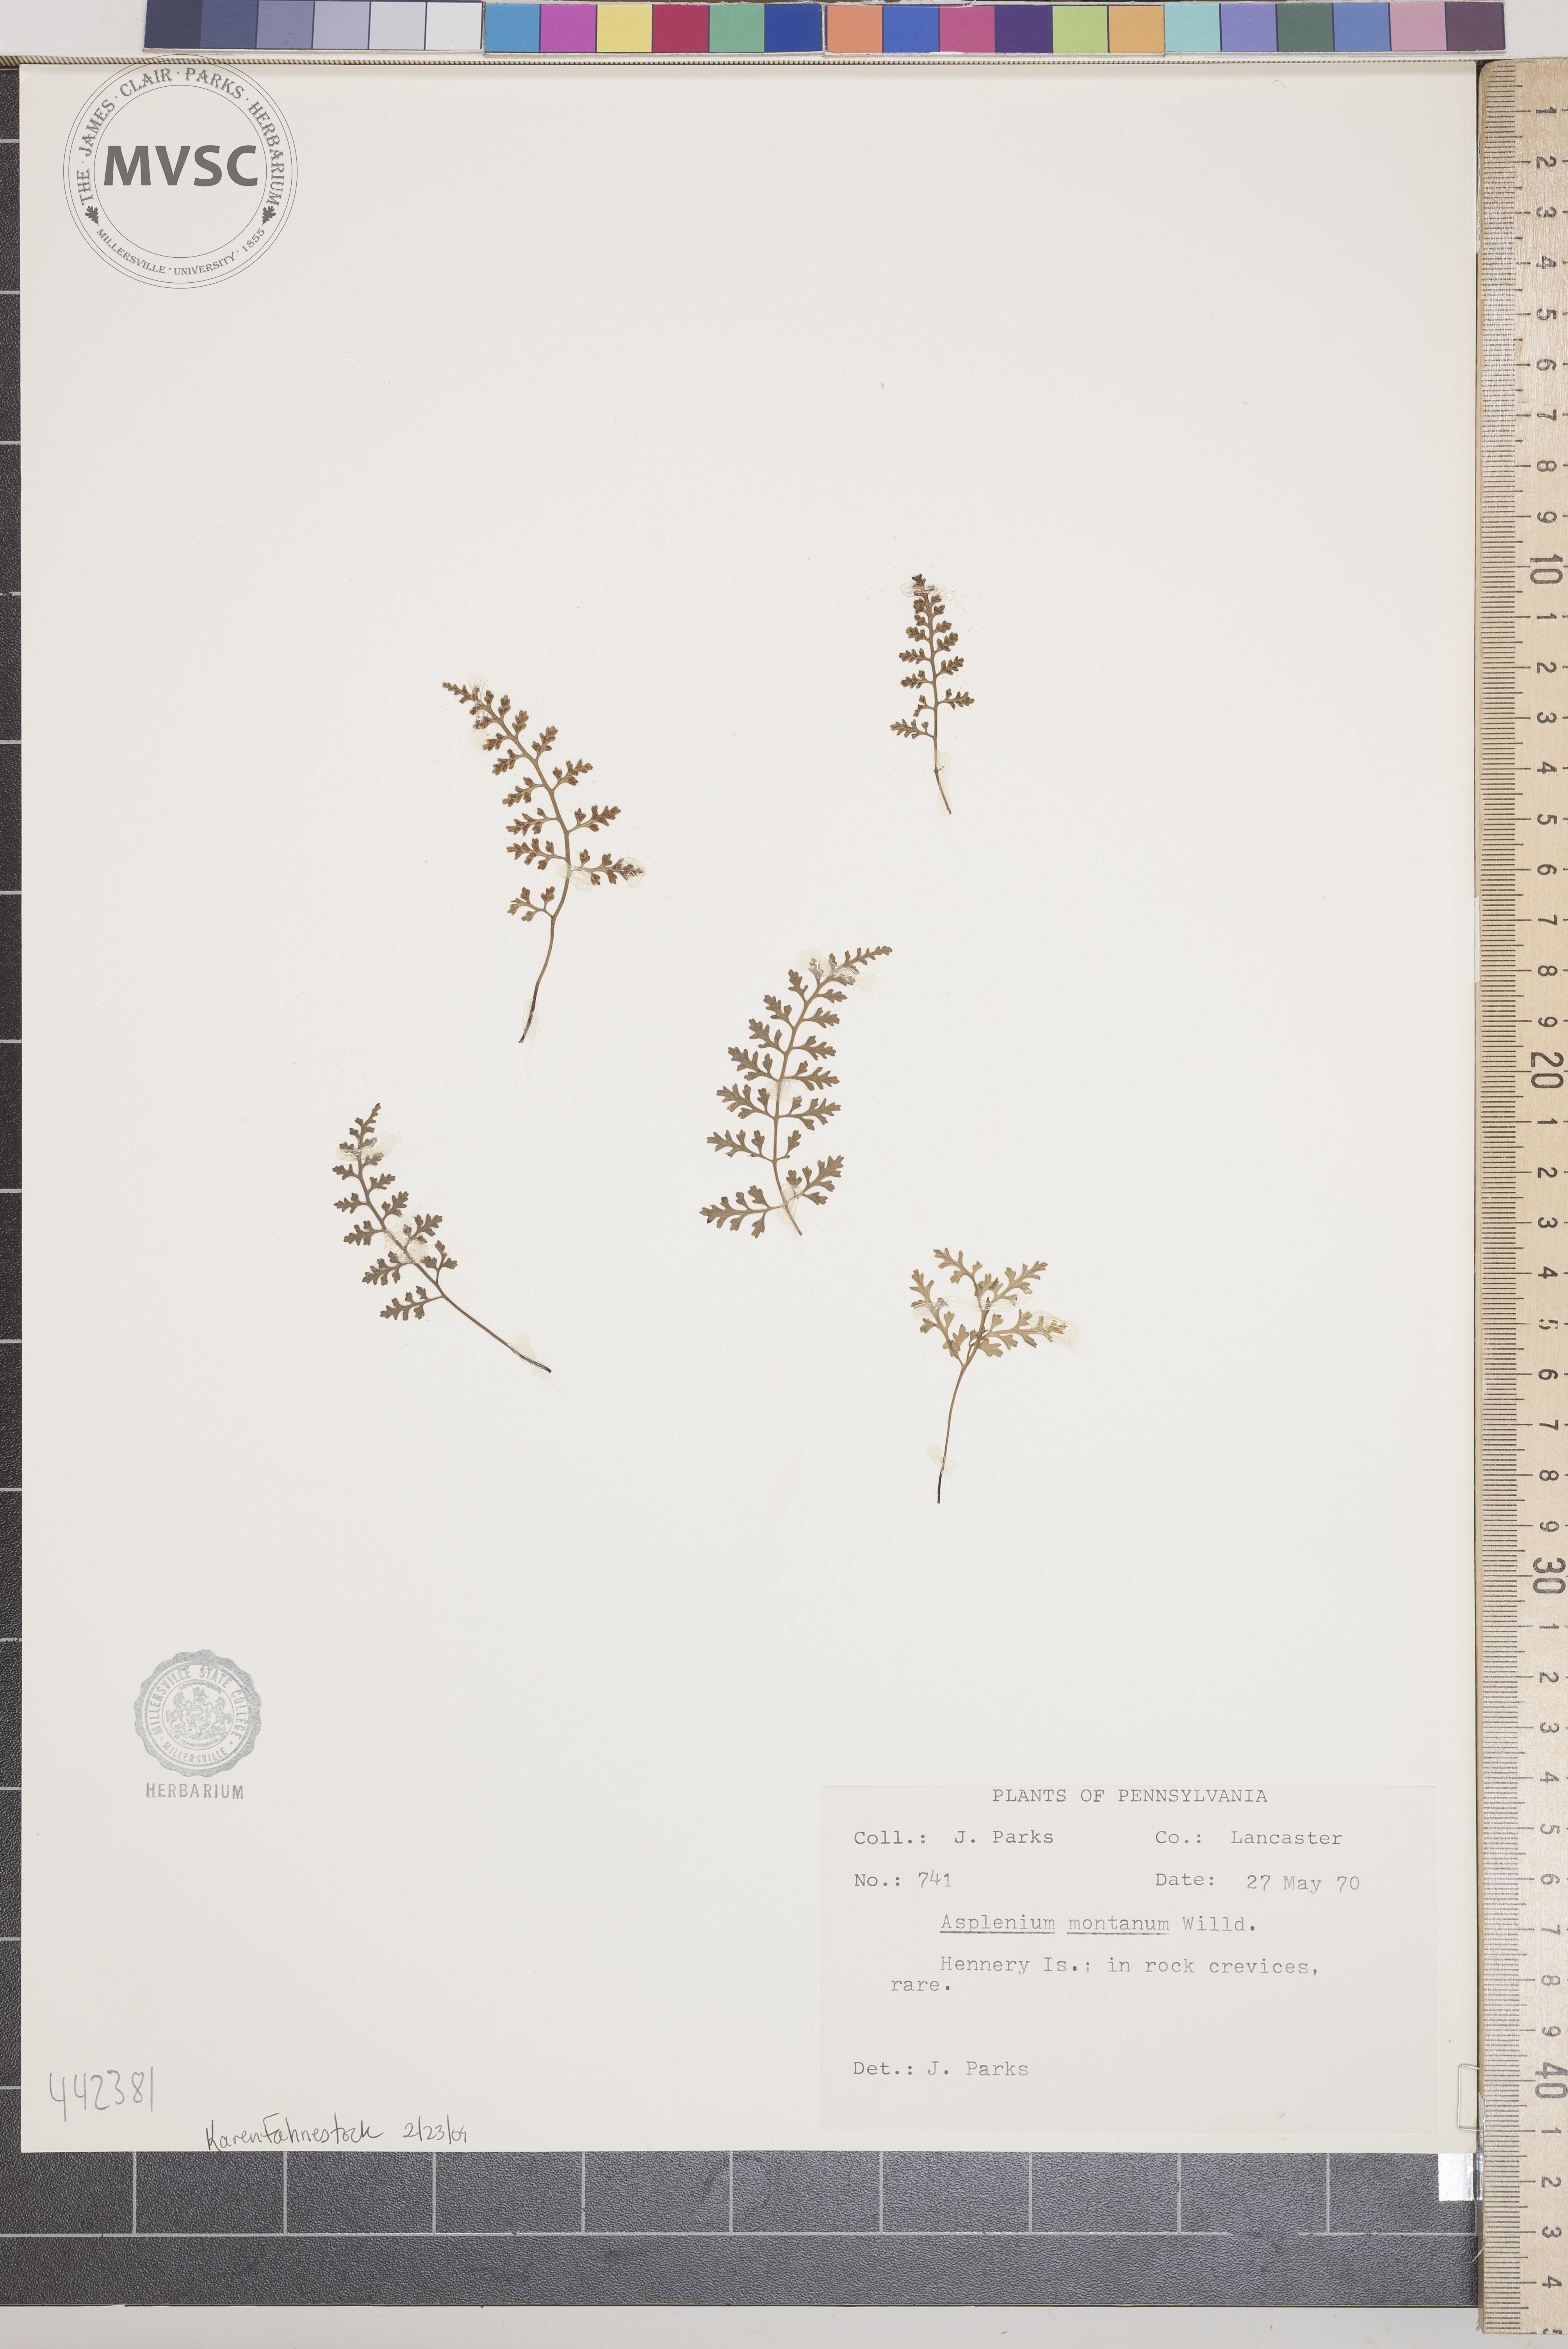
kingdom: Plantae
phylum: Tracheophyta
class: Polypodiopsida
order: Polypodiales
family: Aspleniaceae
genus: Asplenium
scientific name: Asplenium montanum
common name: Mountain spleenwort
